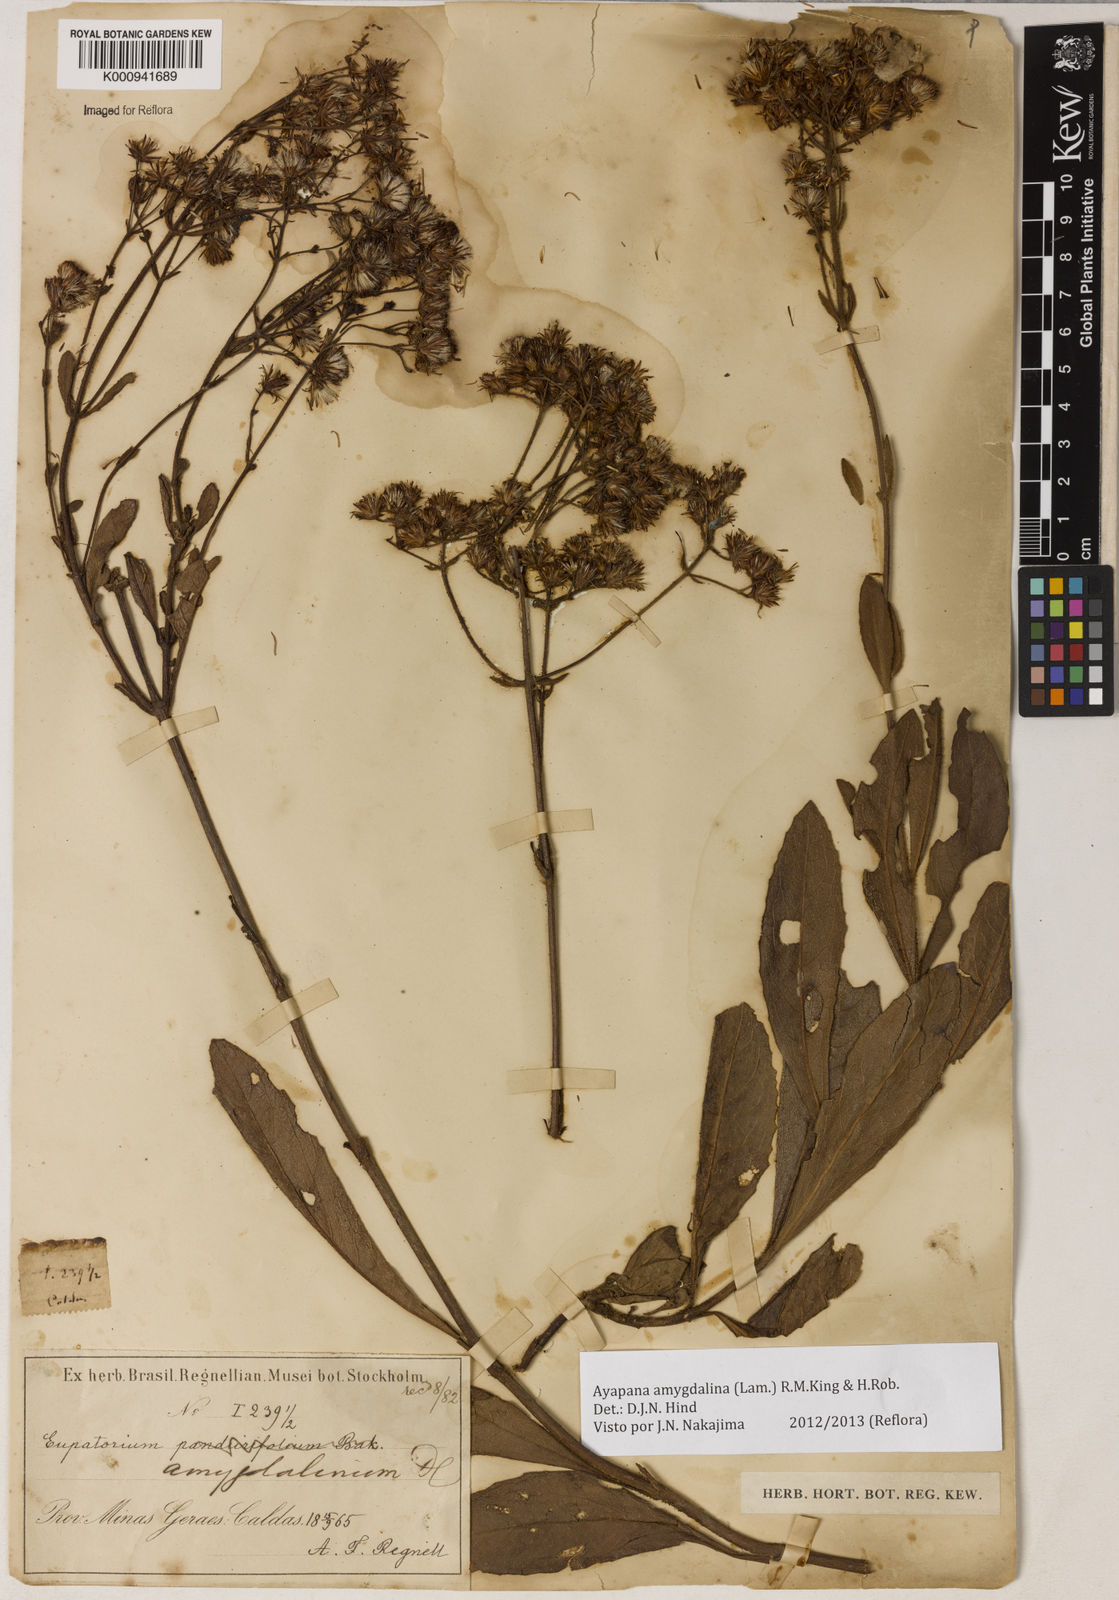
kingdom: Plantae
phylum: Tracheophyta
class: Magnoliopsida
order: Asterales
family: Asteraceae
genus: Ayapana
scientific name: Ayapana amygdalina
